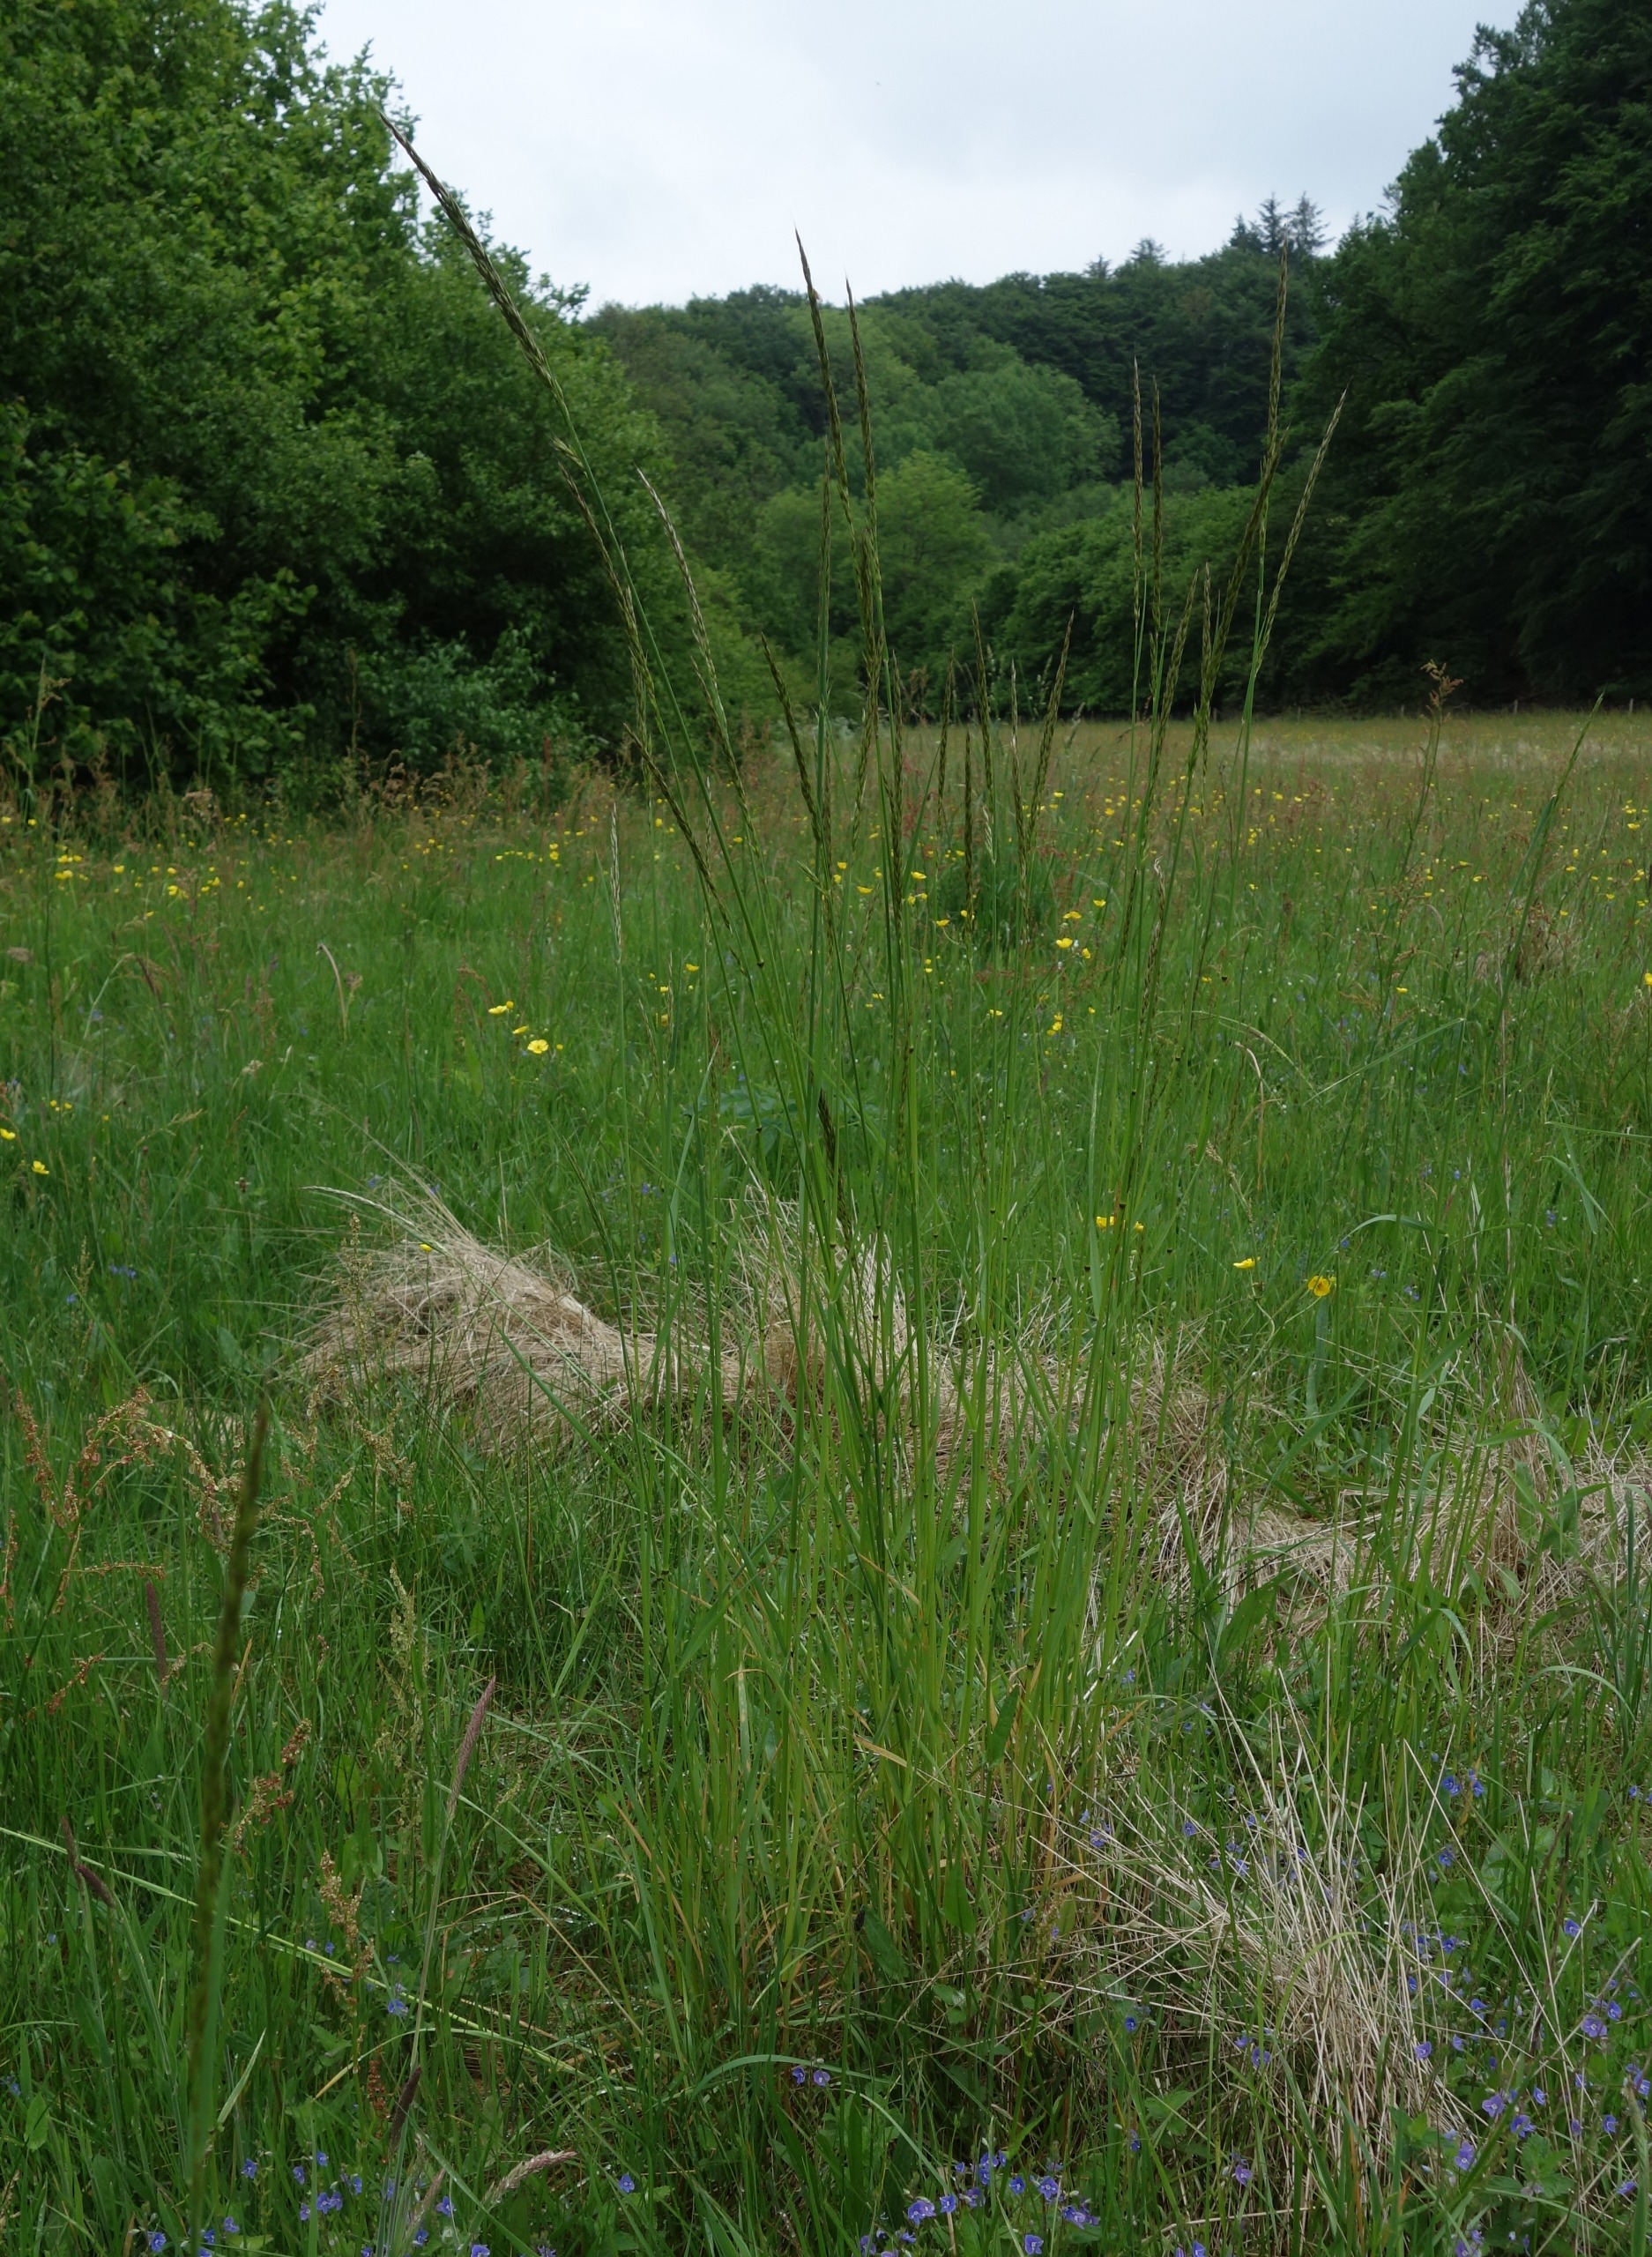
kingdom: Plantae
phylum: Tracheophyta
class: Liliopsida
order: Poales
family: Poaceae
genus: Arrhenatherum
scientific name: Arrhenatherum elatius
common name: Draphavre
